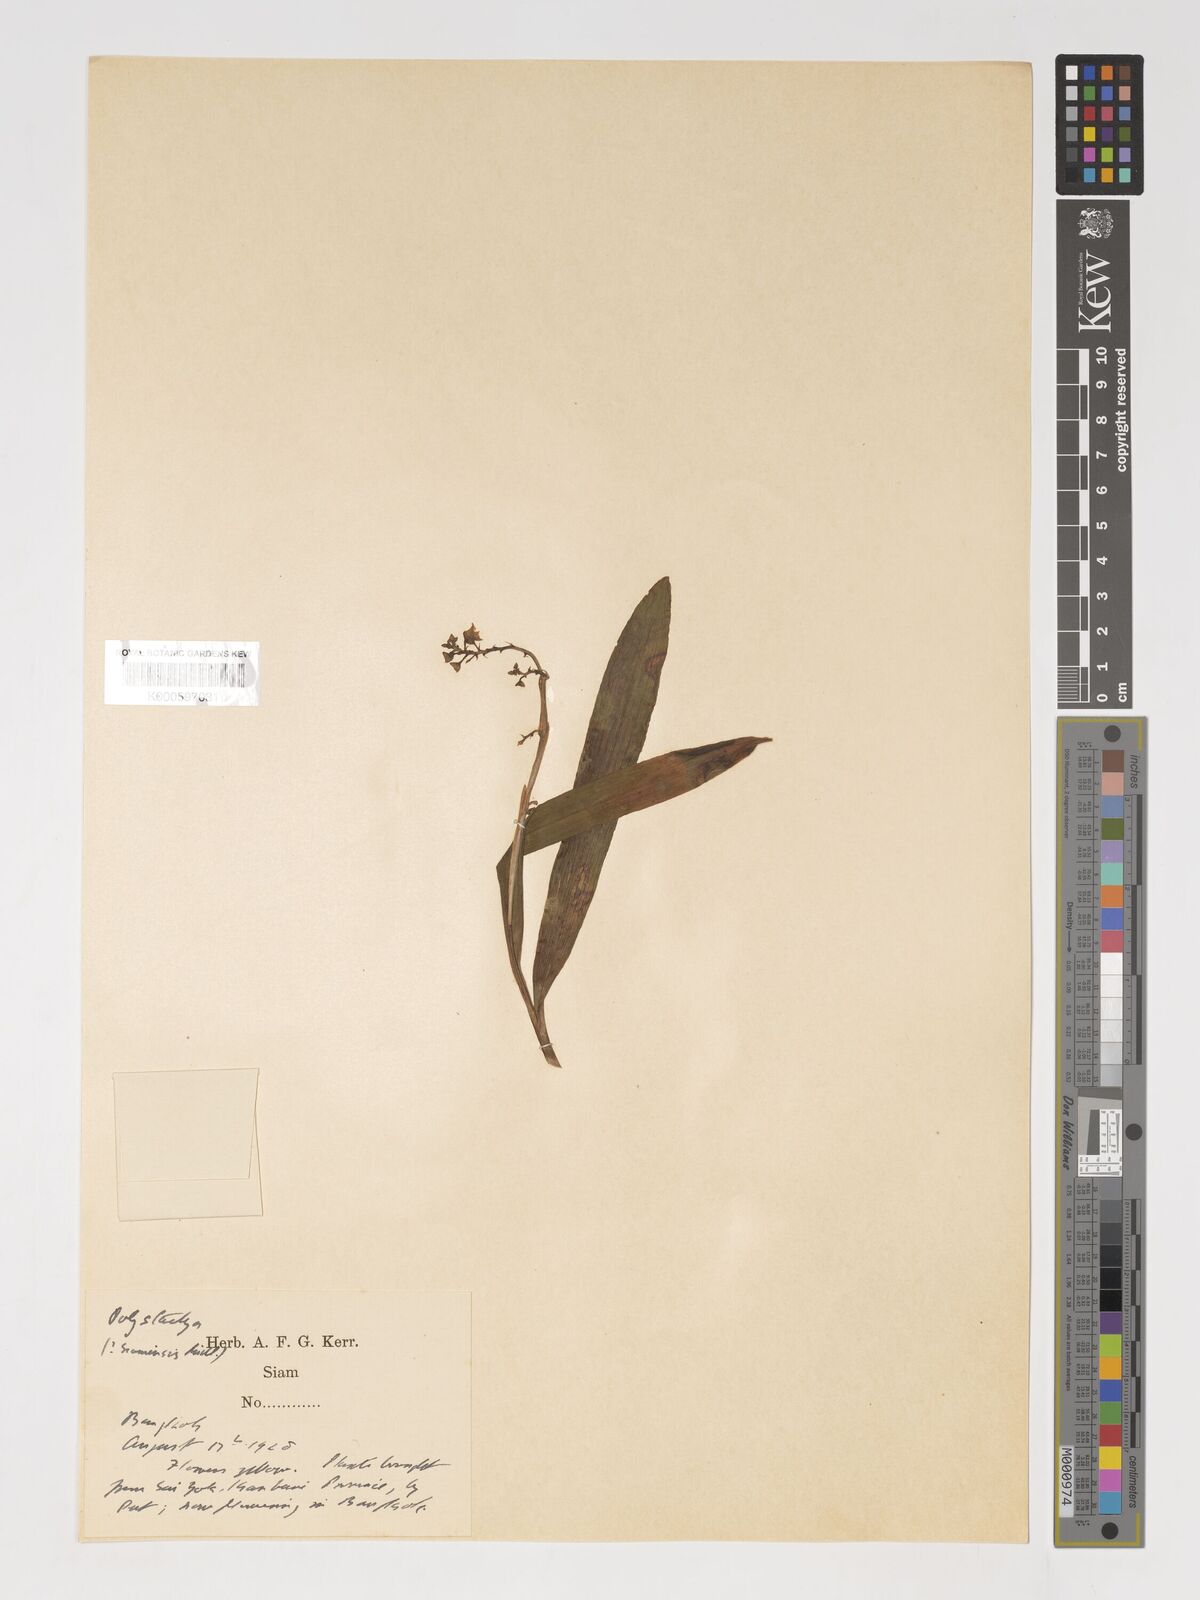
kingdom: Plantae
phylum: Tracheophyta
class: Liliopsida
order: Asparagales
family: Orchidaceae
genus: Polystachya
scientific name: Polystachya concreta
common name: Greater yellowspike orchid
